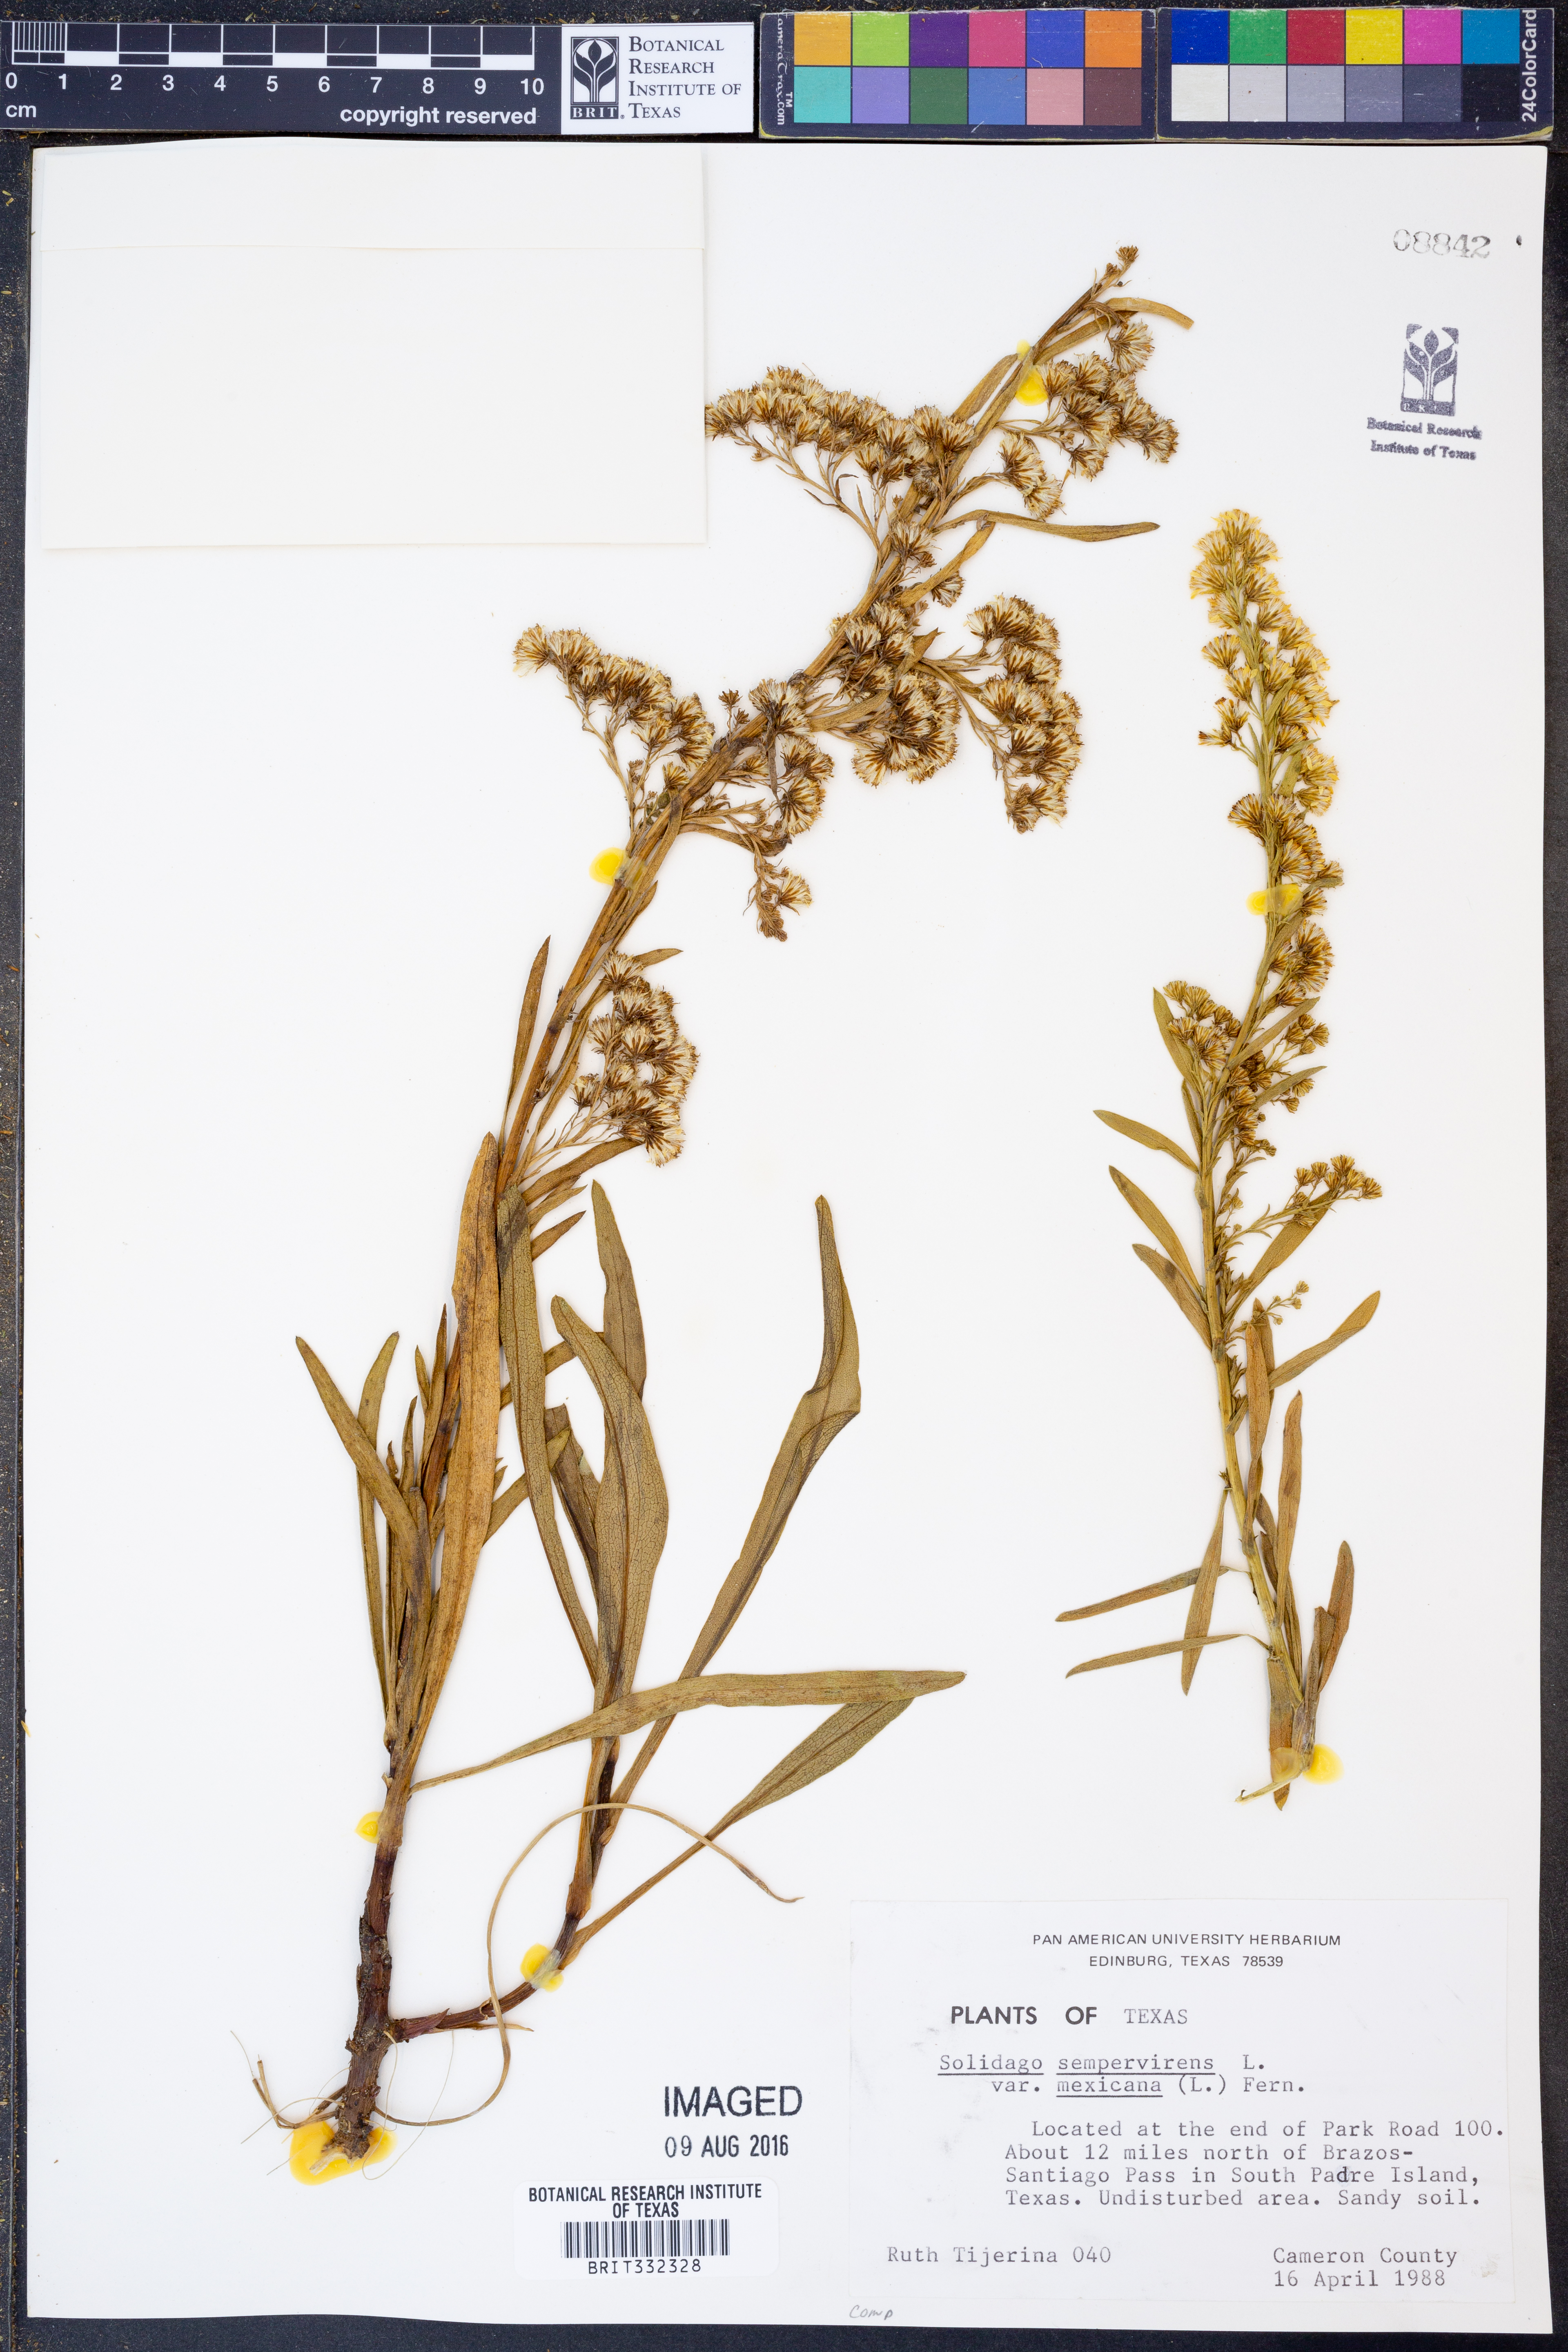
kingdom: Plantae
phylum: Tracheophyta
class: Magnoliopsida
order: Asterales
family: Asteraceae
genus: Solidago
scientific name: Solidago mexicana
